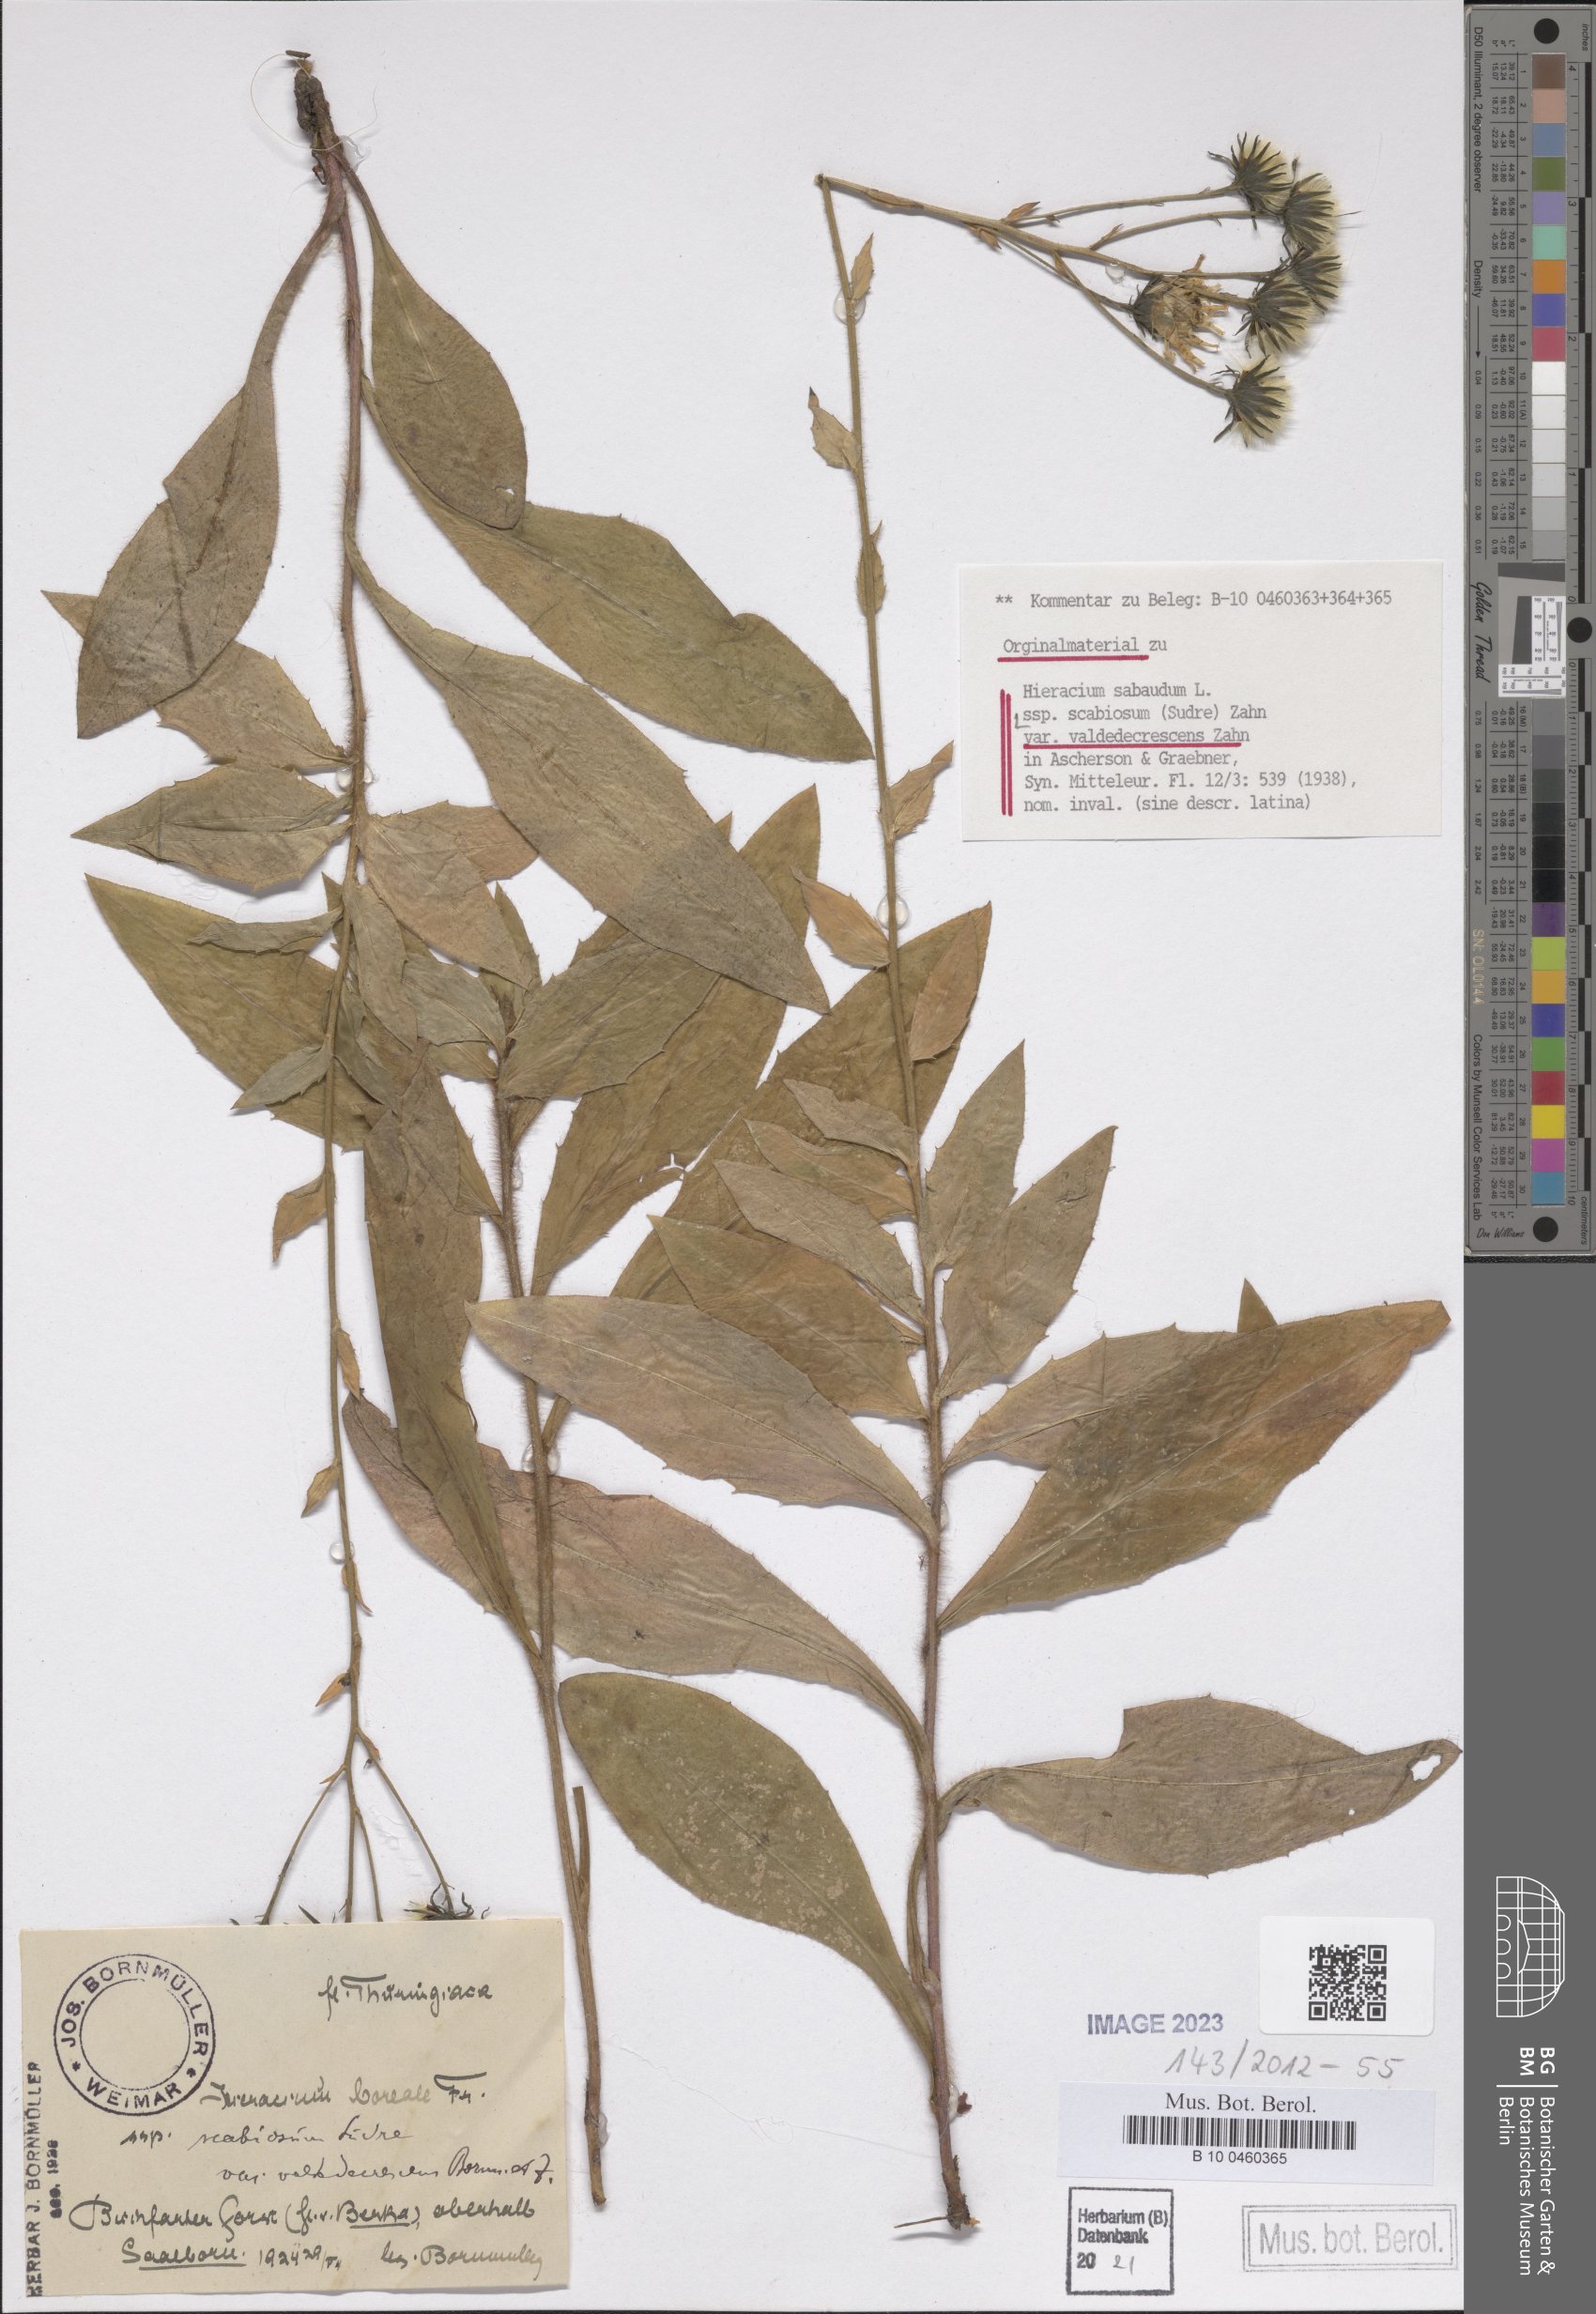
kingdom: Plantae
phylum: Tracheophyta
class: Magnoliopsida
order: Asterales
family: Asteraceae
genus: Hieracium
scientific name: Hieracium sabaudum
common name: New england hawkweed
